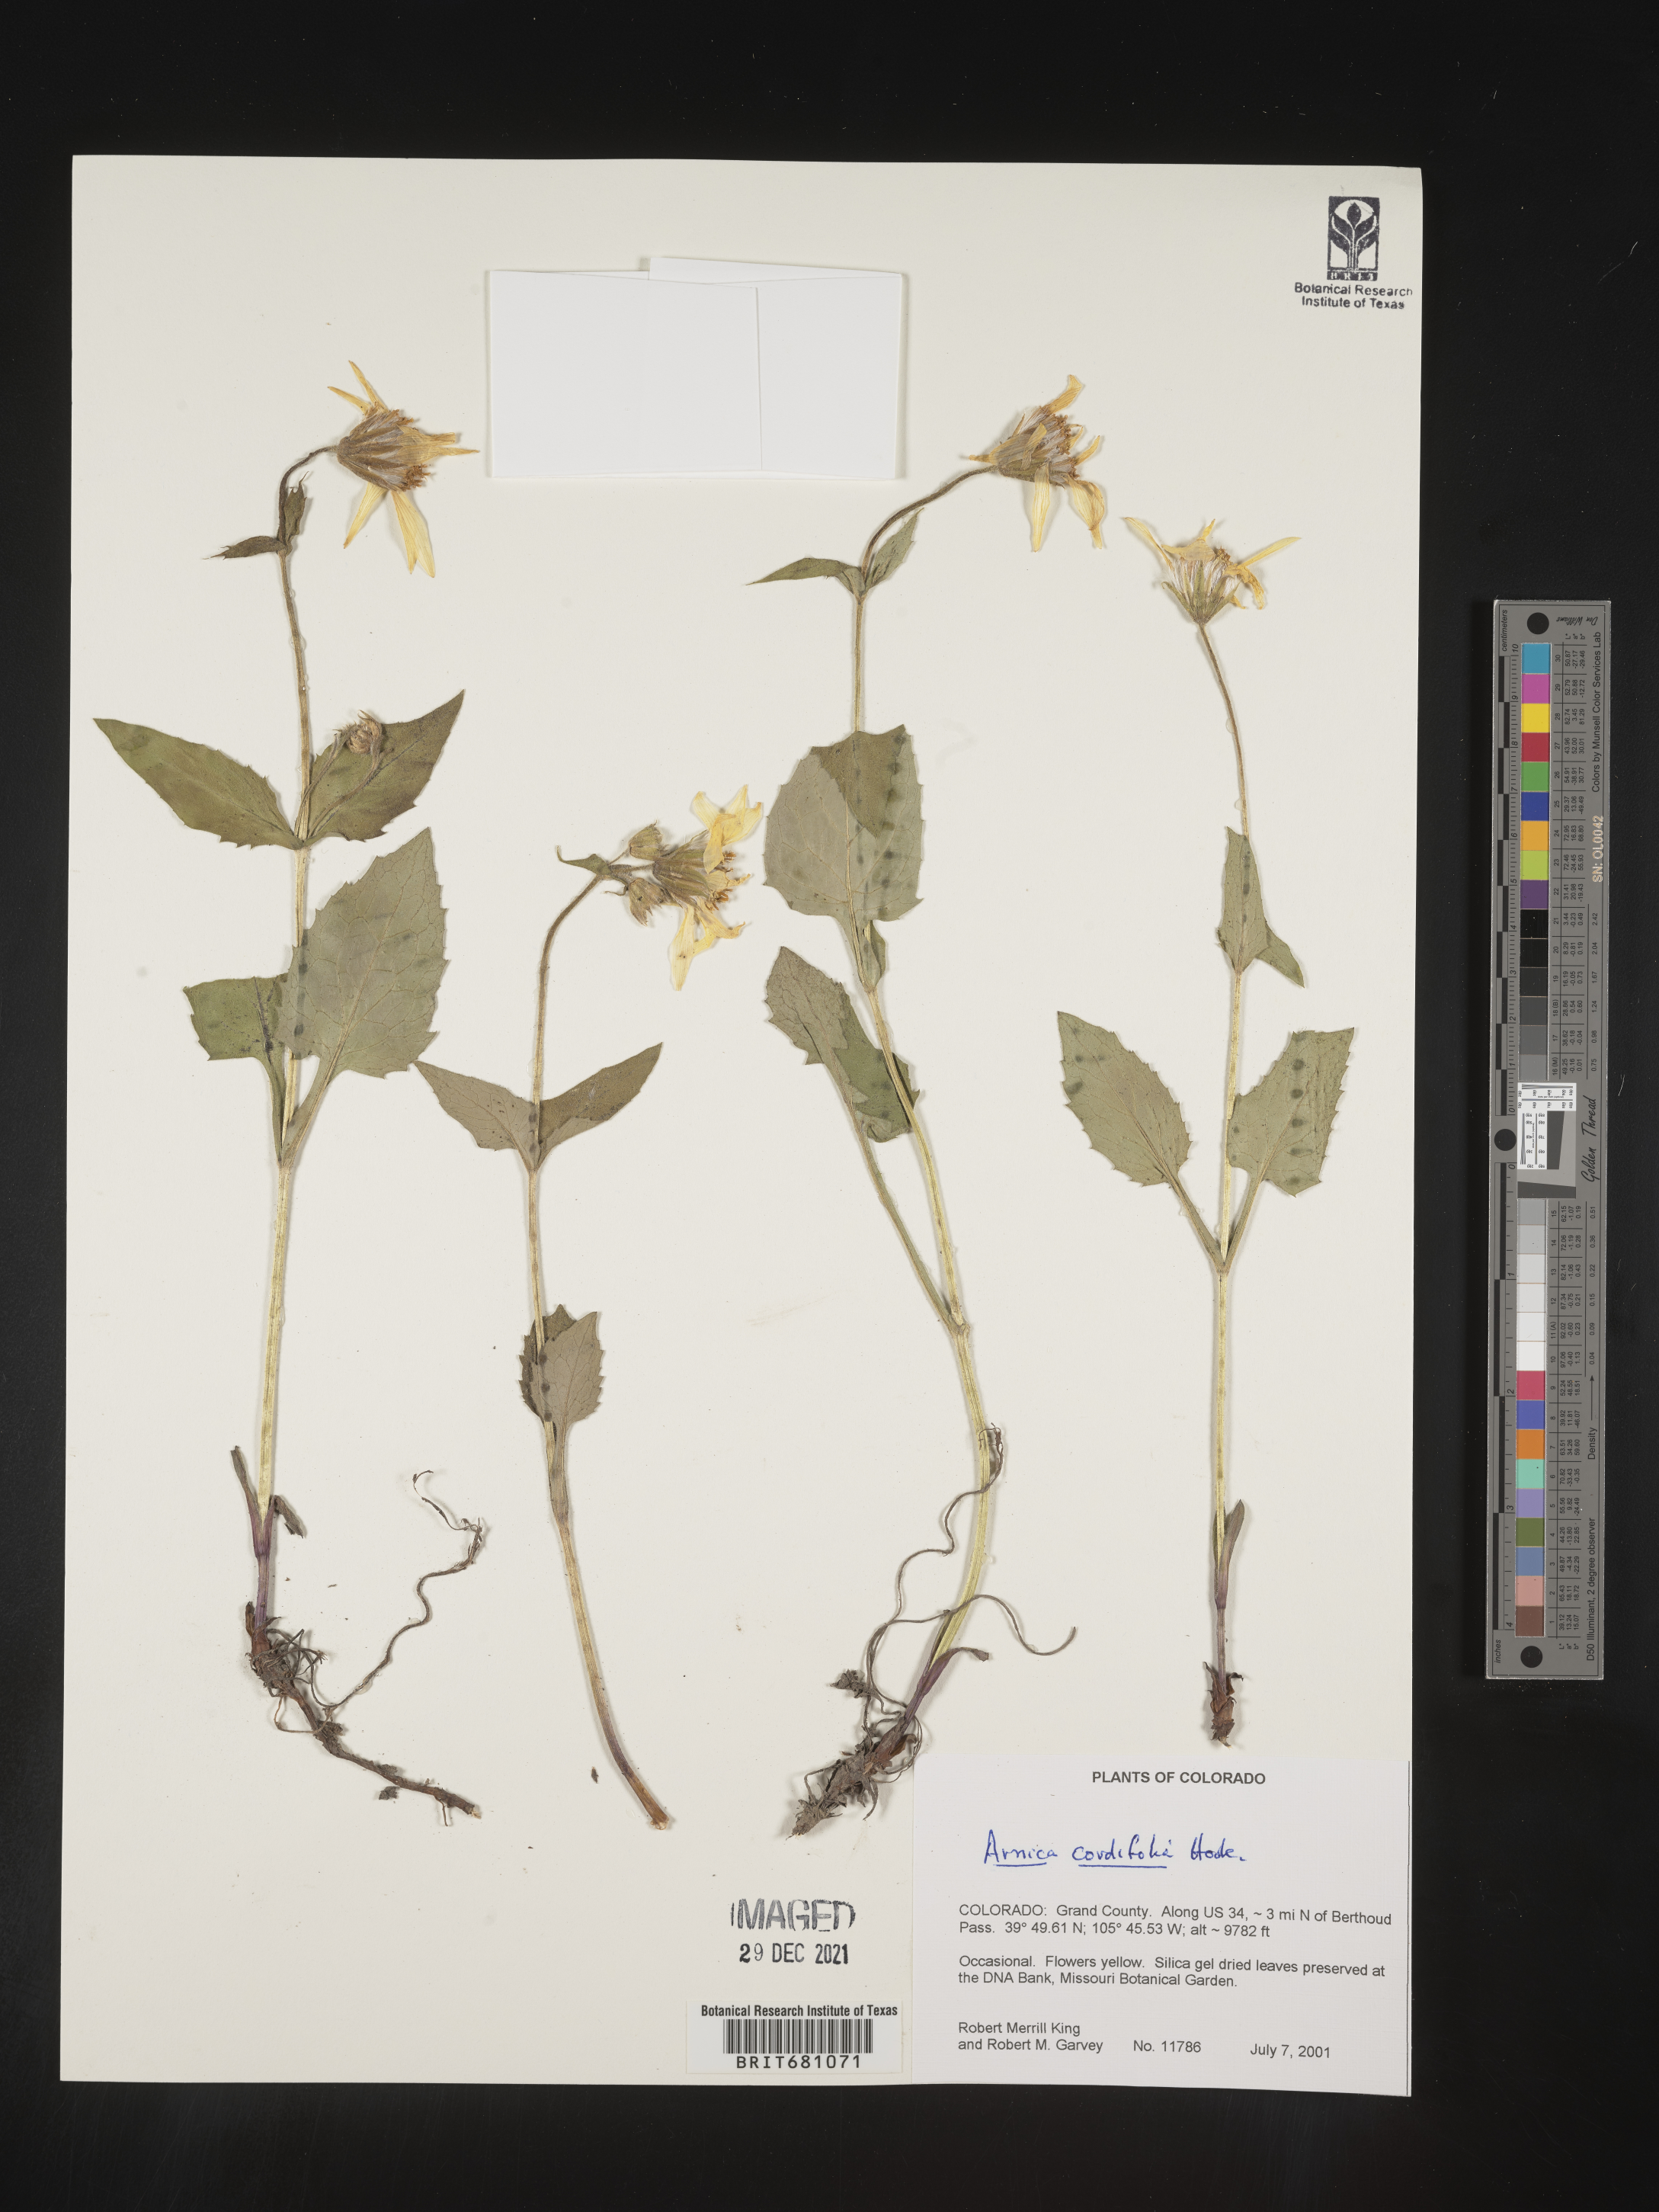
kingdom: Plantae
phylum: Tracheophyta
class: Magnoliopsida
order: Asterales
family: Asteraceae
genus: Arnica
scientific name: Arnica cordifolia
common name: Heart-leaf arnica
